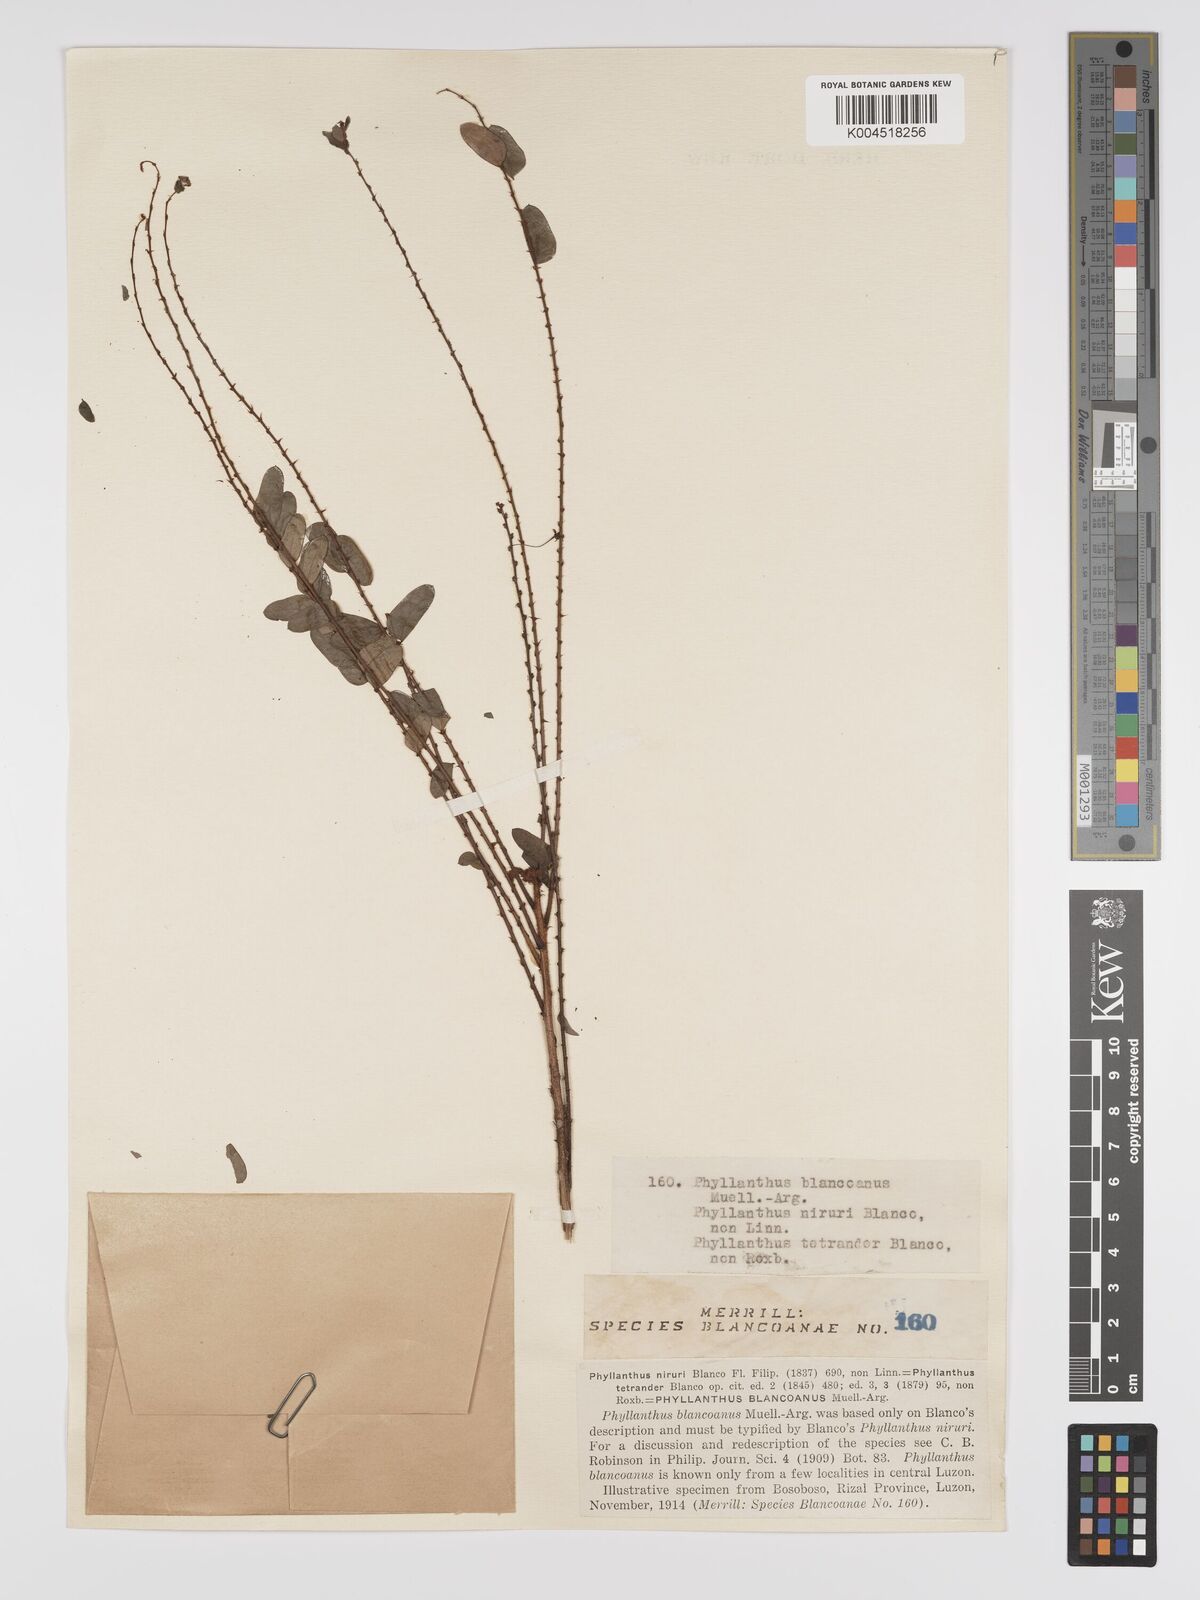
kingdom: Plantae
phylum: Tracheophyta
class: Magnoliopsida
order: Malpighiales
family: Phyllanthaceae
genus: Phyllanthus
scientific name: Phyllanthus blancoanus
